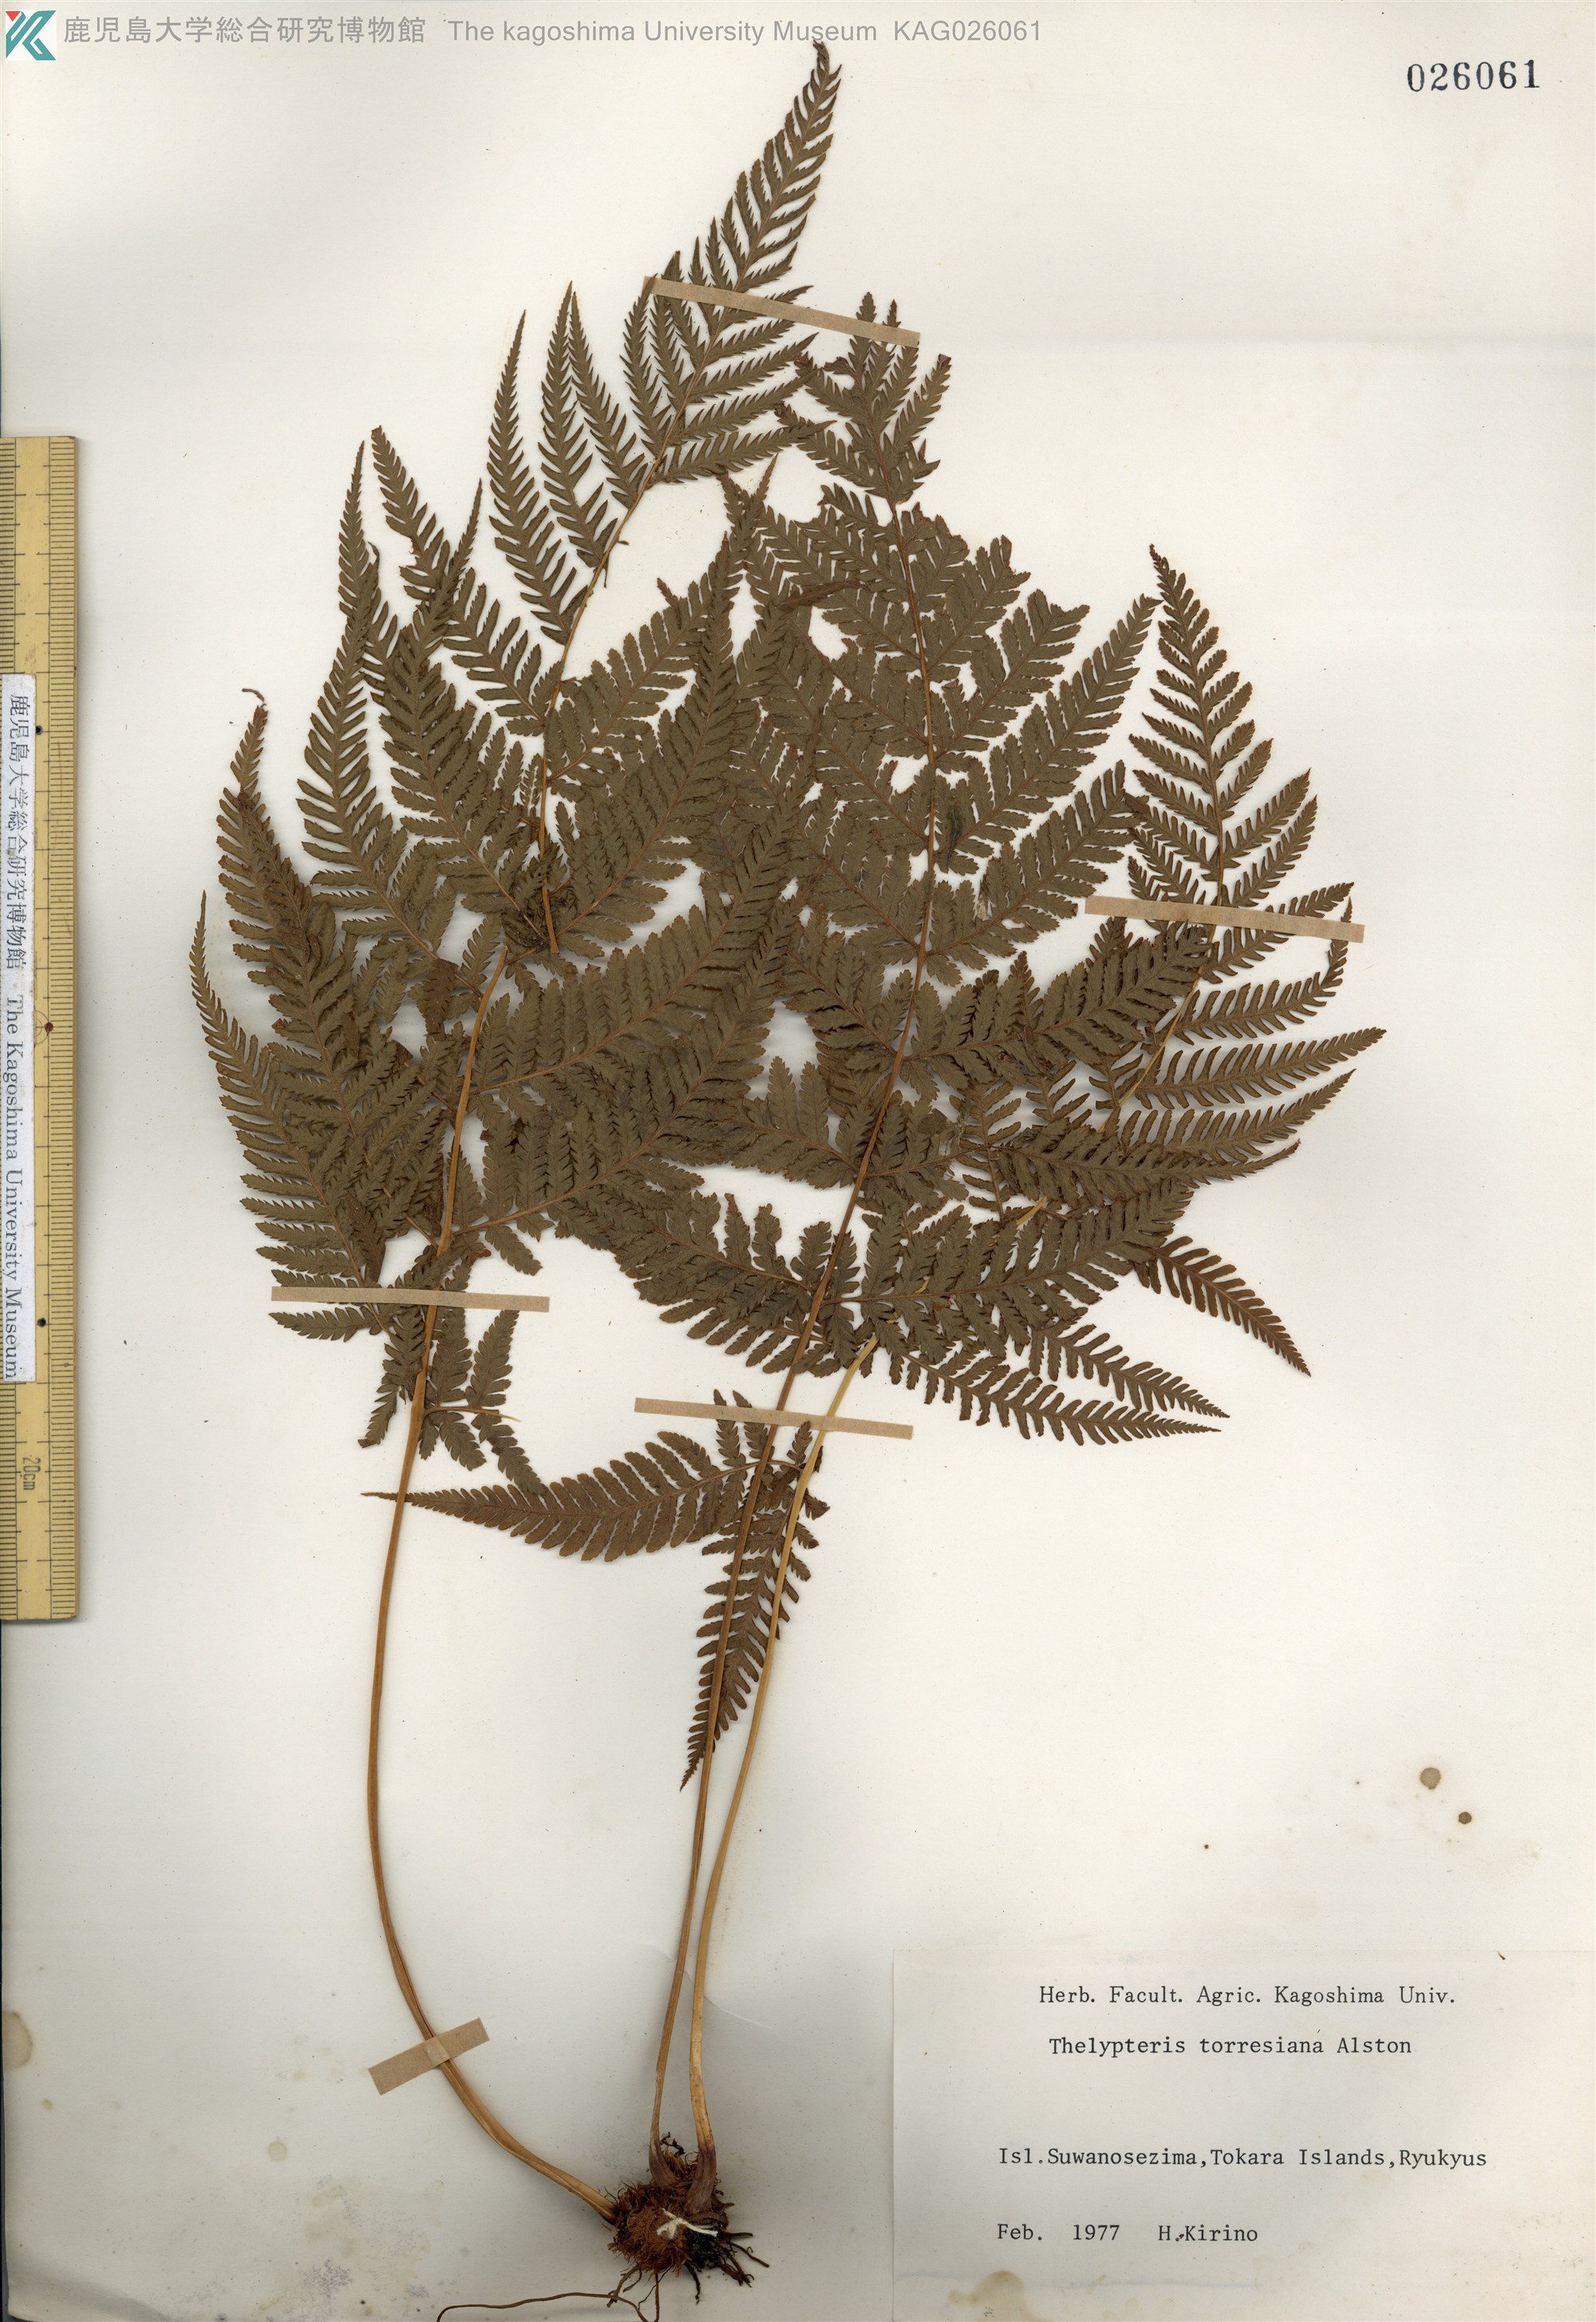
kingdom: Plantae
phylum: Tracheophyta
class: Polypodiopsida
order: Polypodiales
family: Thelypteridaceae
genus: Macrothelypteris
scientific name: Macrothelypteris oligophlebia
